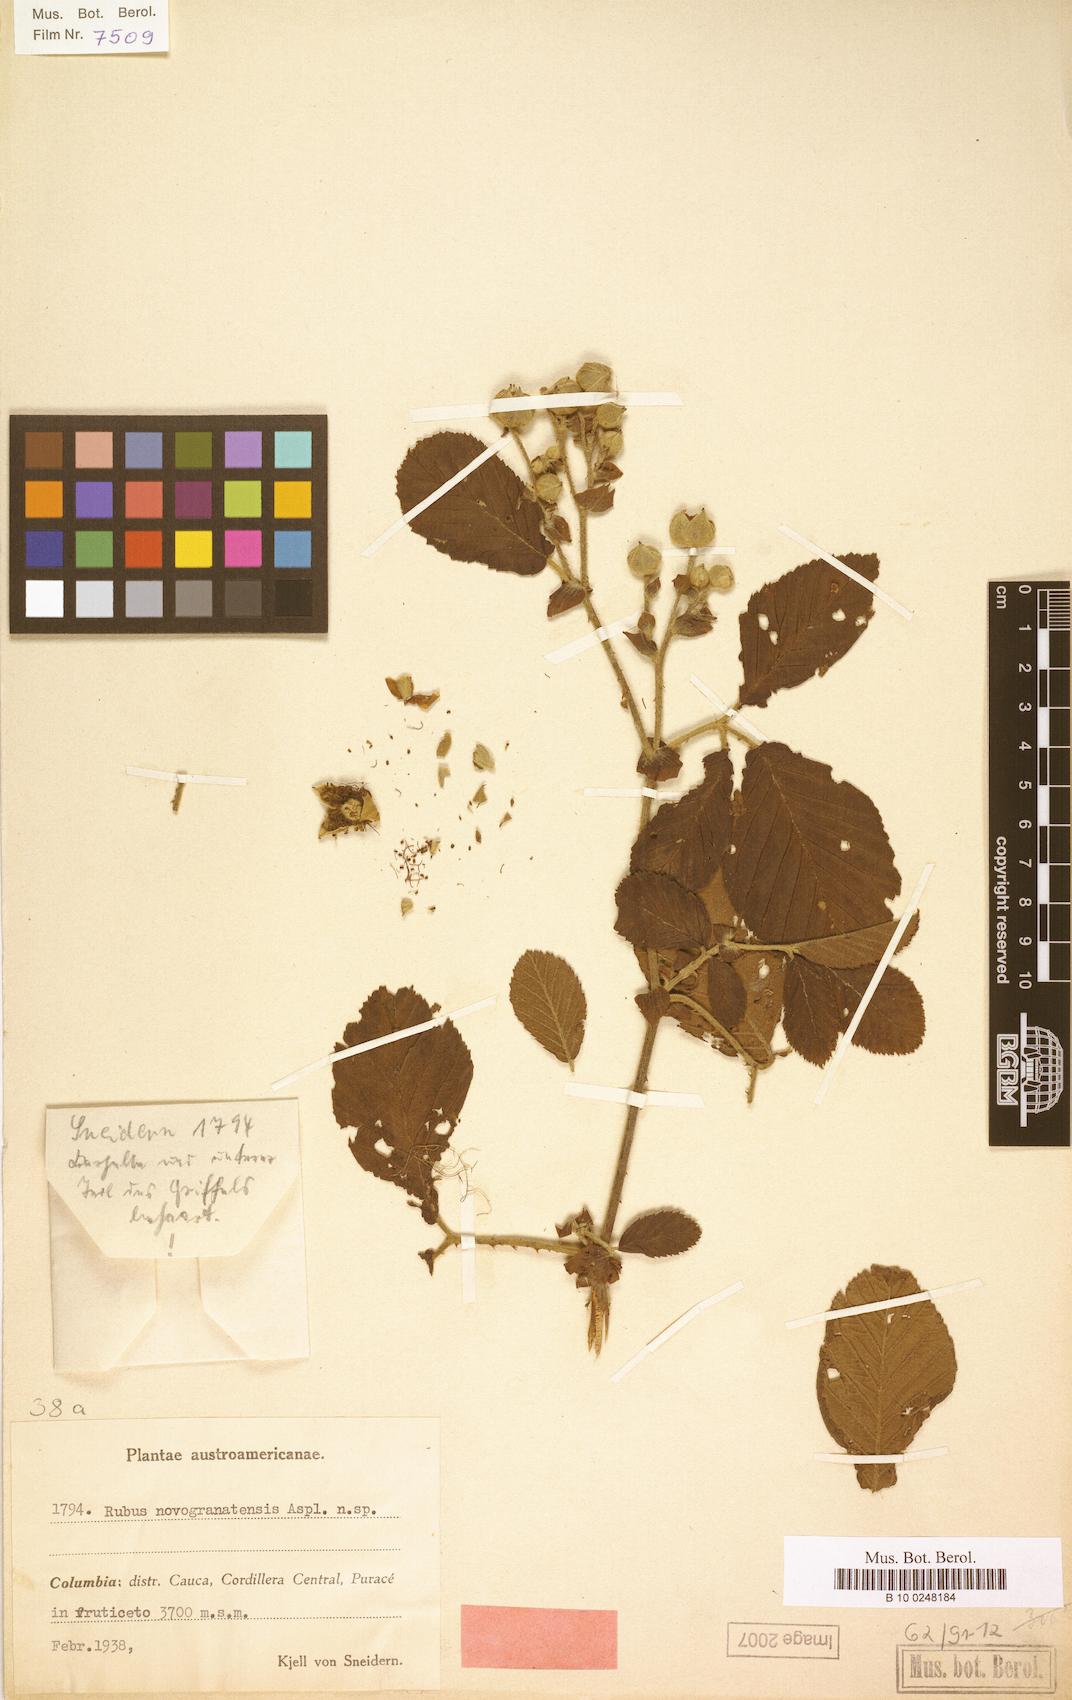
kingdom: Plantae
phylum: Tracheophyta
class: Magnoliopsida
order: Rosales
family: Rosaceae
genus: Rubus
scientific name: Rubus novogranatensis
